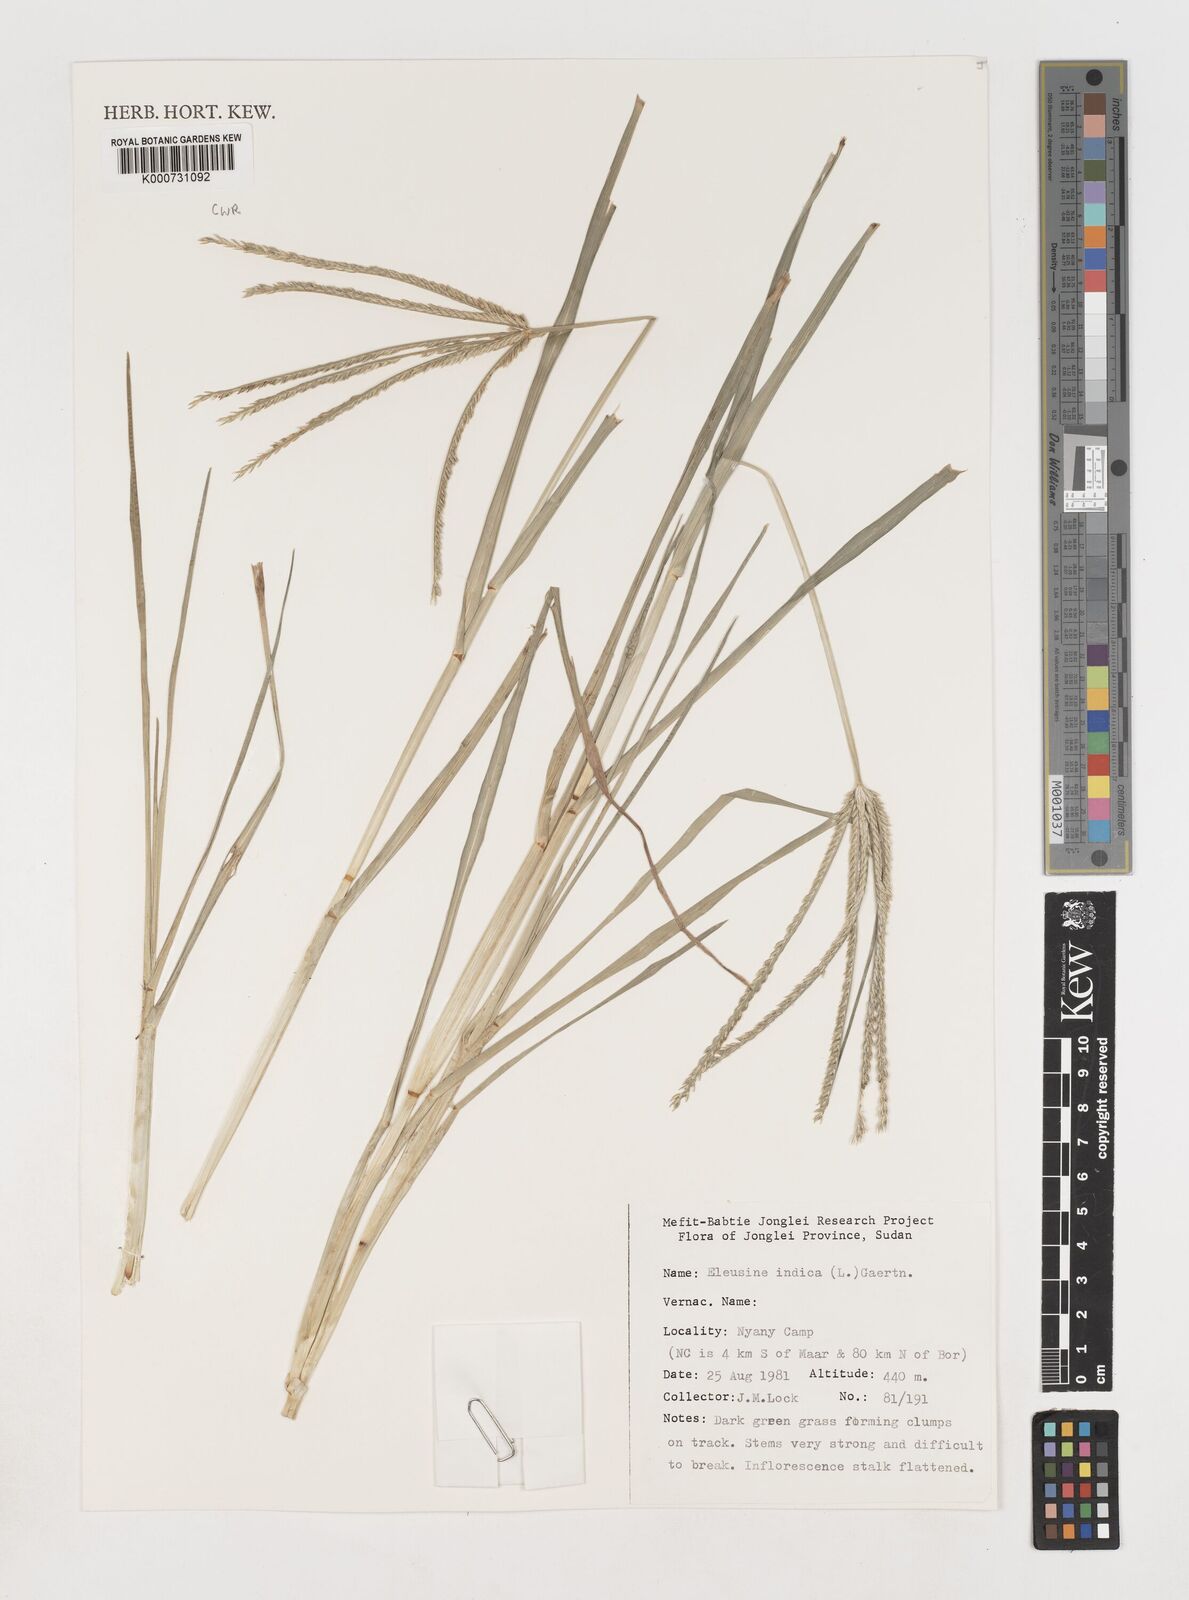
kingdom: Plantae
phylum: Tracheophyta
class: Liliopsida
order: Poales
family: Poaceae
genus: Eleusine
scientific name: Eleusine indica
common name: Yard-grass
